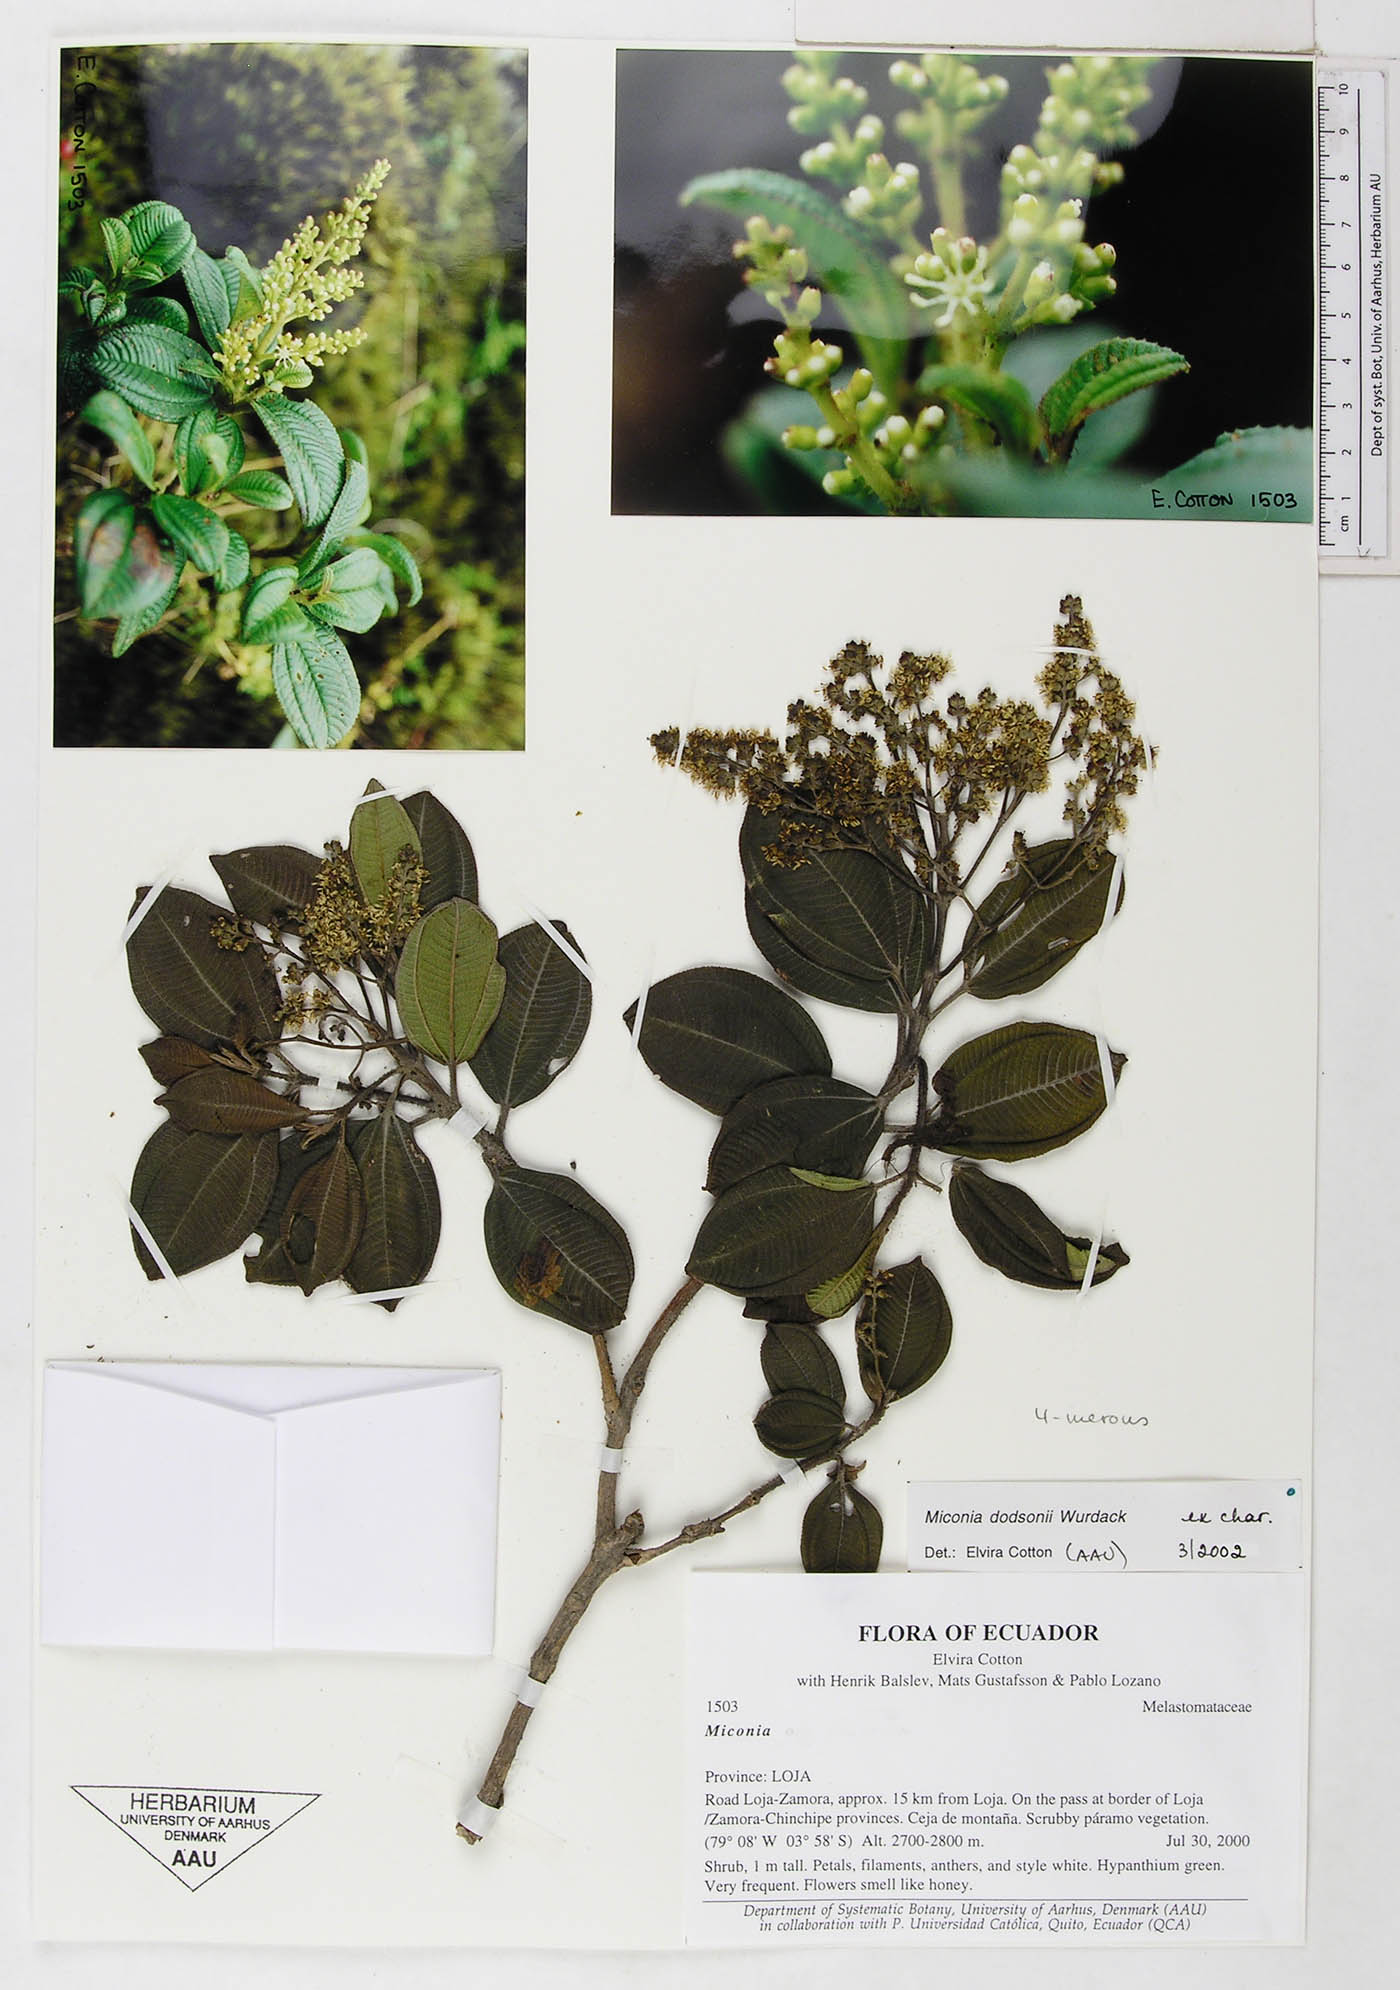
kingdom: Plantae
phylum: Tracheophyta
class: Magnoliopsida
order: Myrtales
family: Melastomataceae
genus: Miconia
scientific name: Miconia dodsonii
